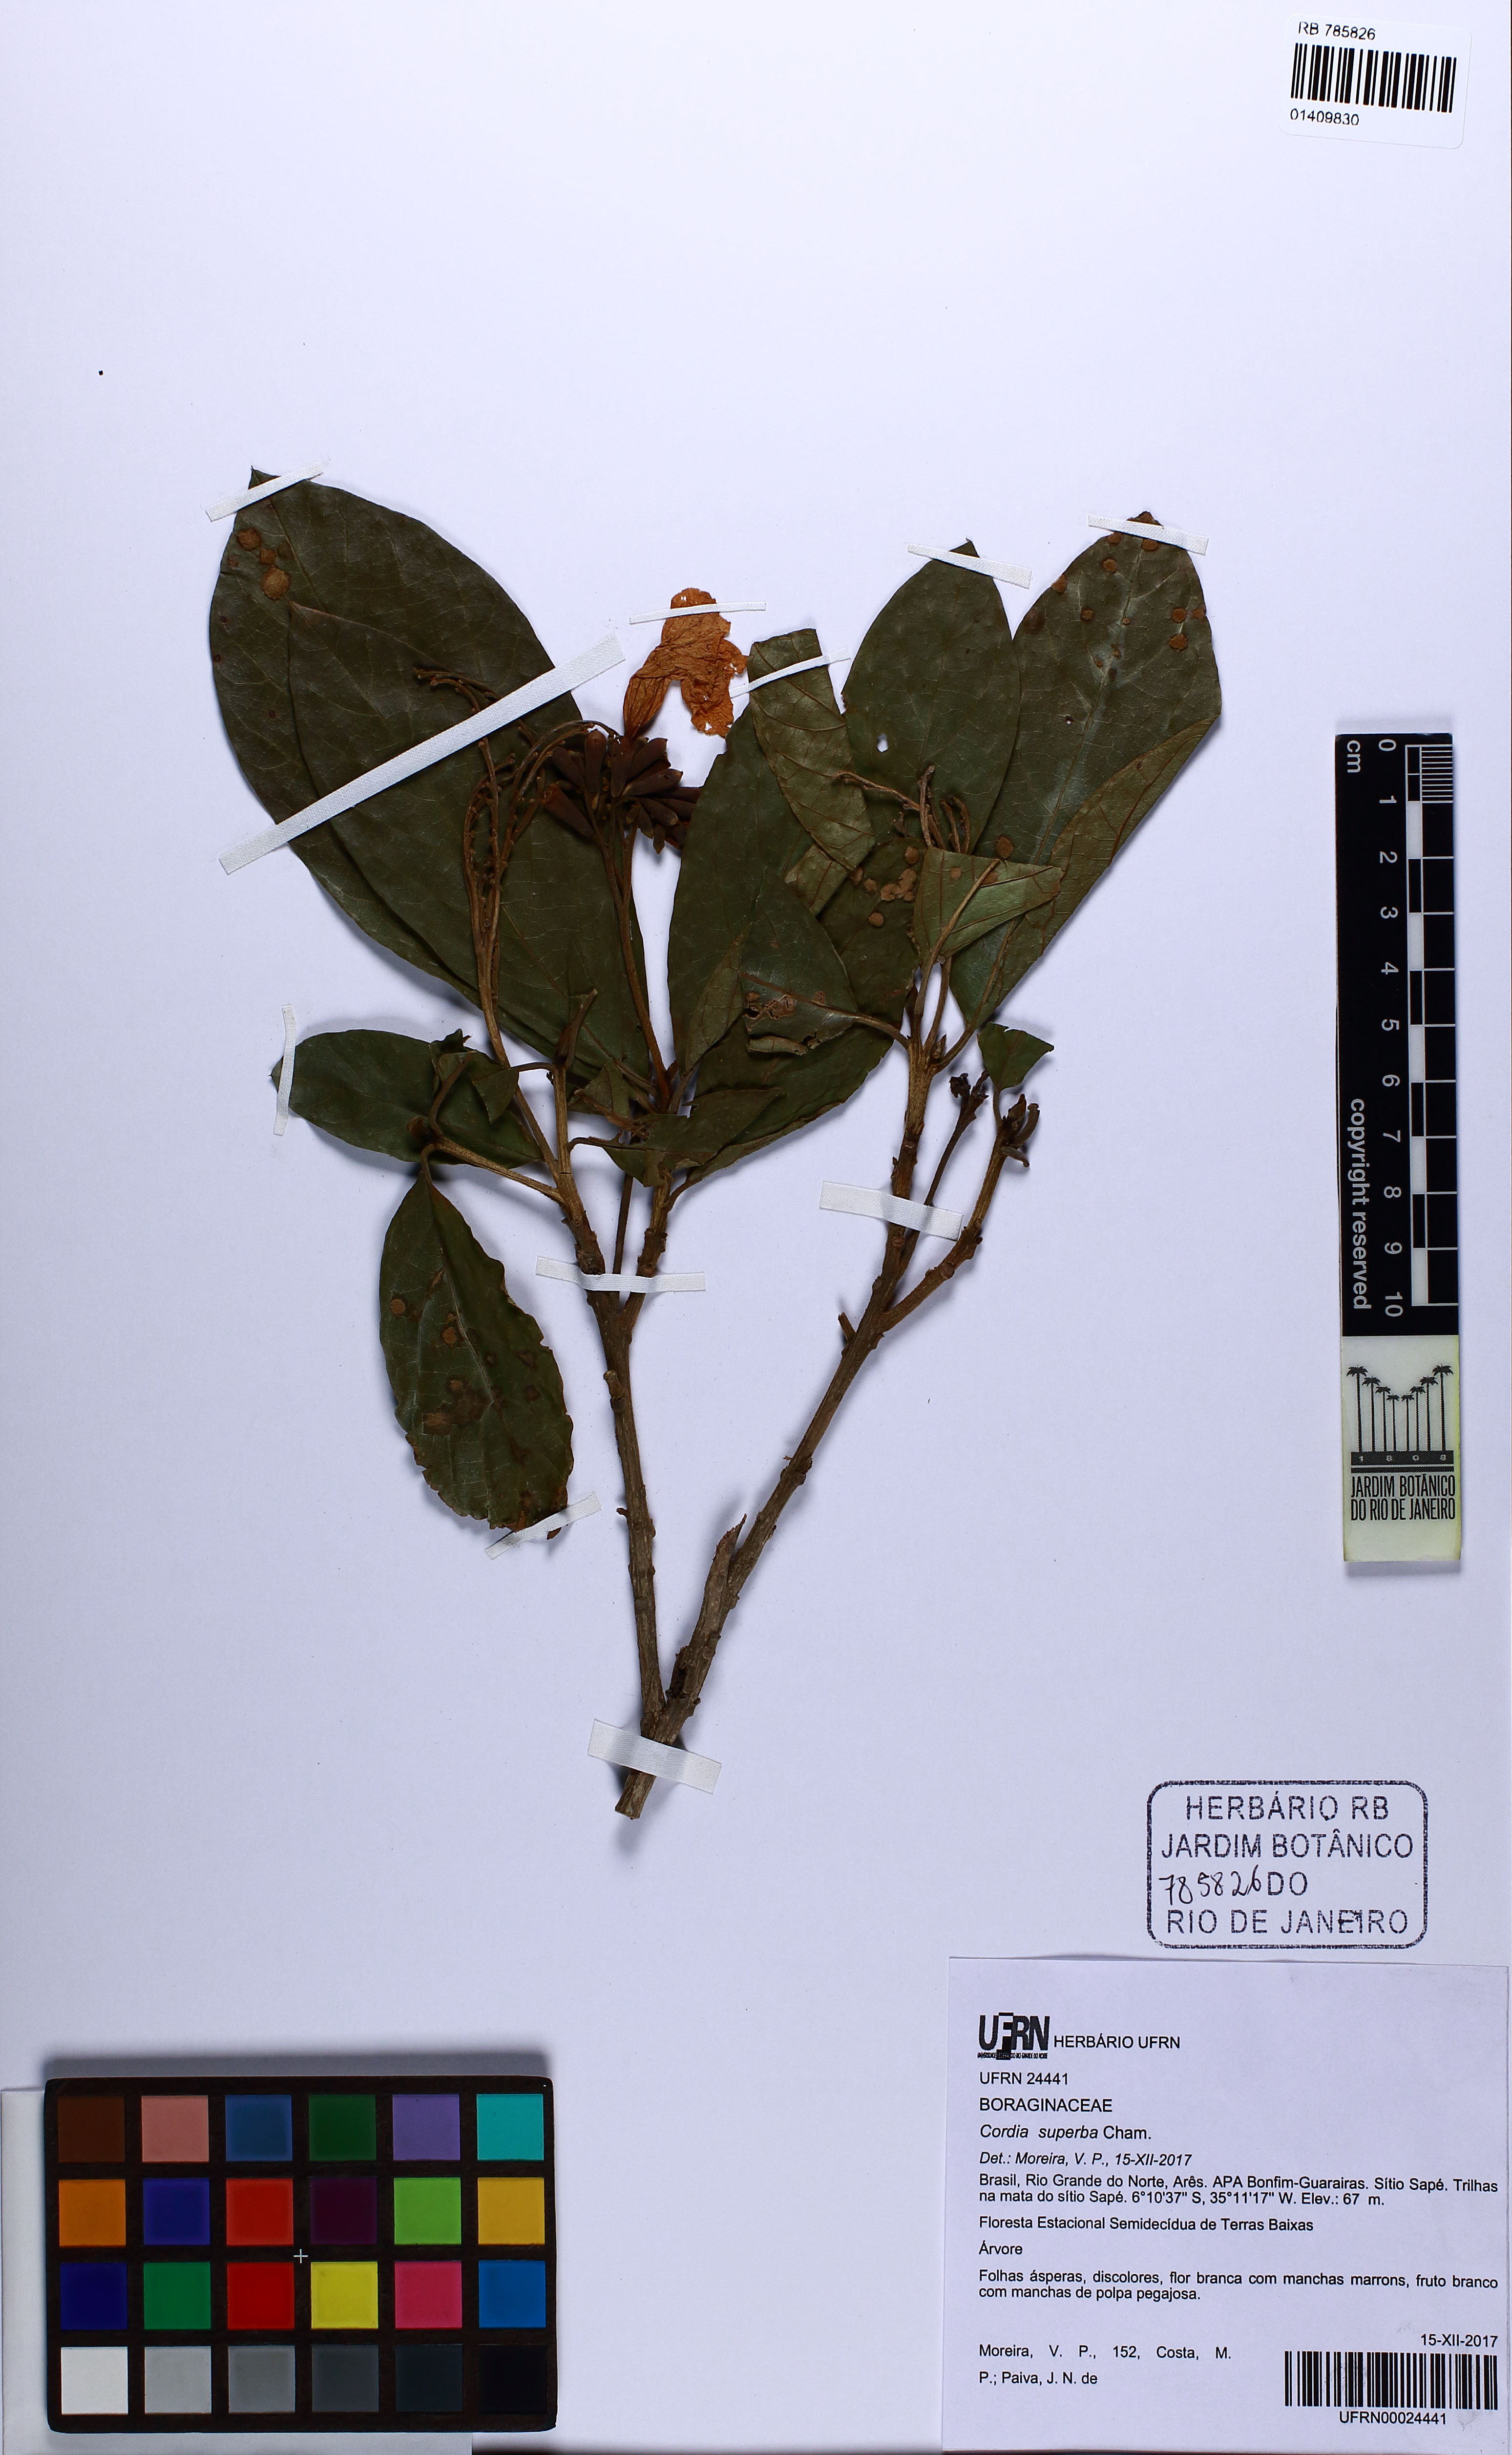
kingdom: Plantae
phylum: Tracheophyta
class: Magnoliopsida
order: Boraginales
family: Cordiaceae
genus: Cordia
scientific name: Cordia superba
